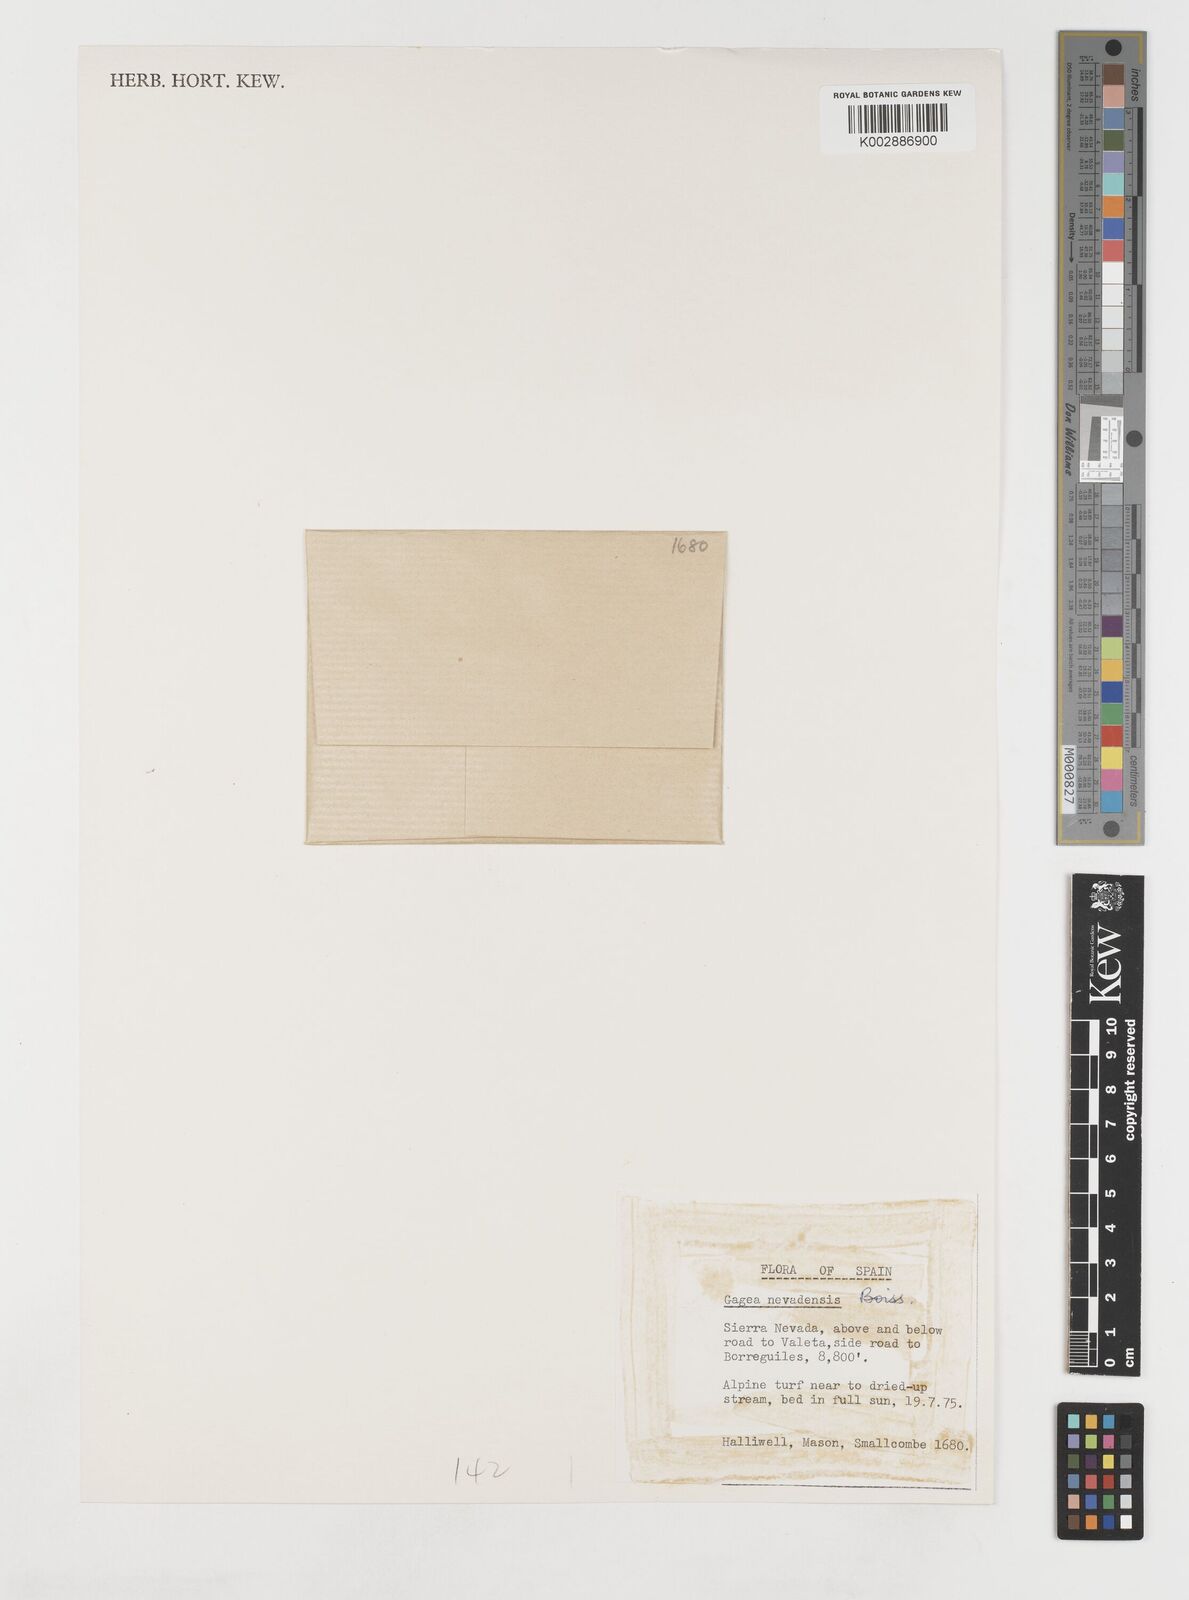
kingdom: Plantae
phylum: Tracheophyta
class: Liliopsida
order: Liliales
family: Liliaceae
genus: Gagea
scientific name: Gagea nevadensis
